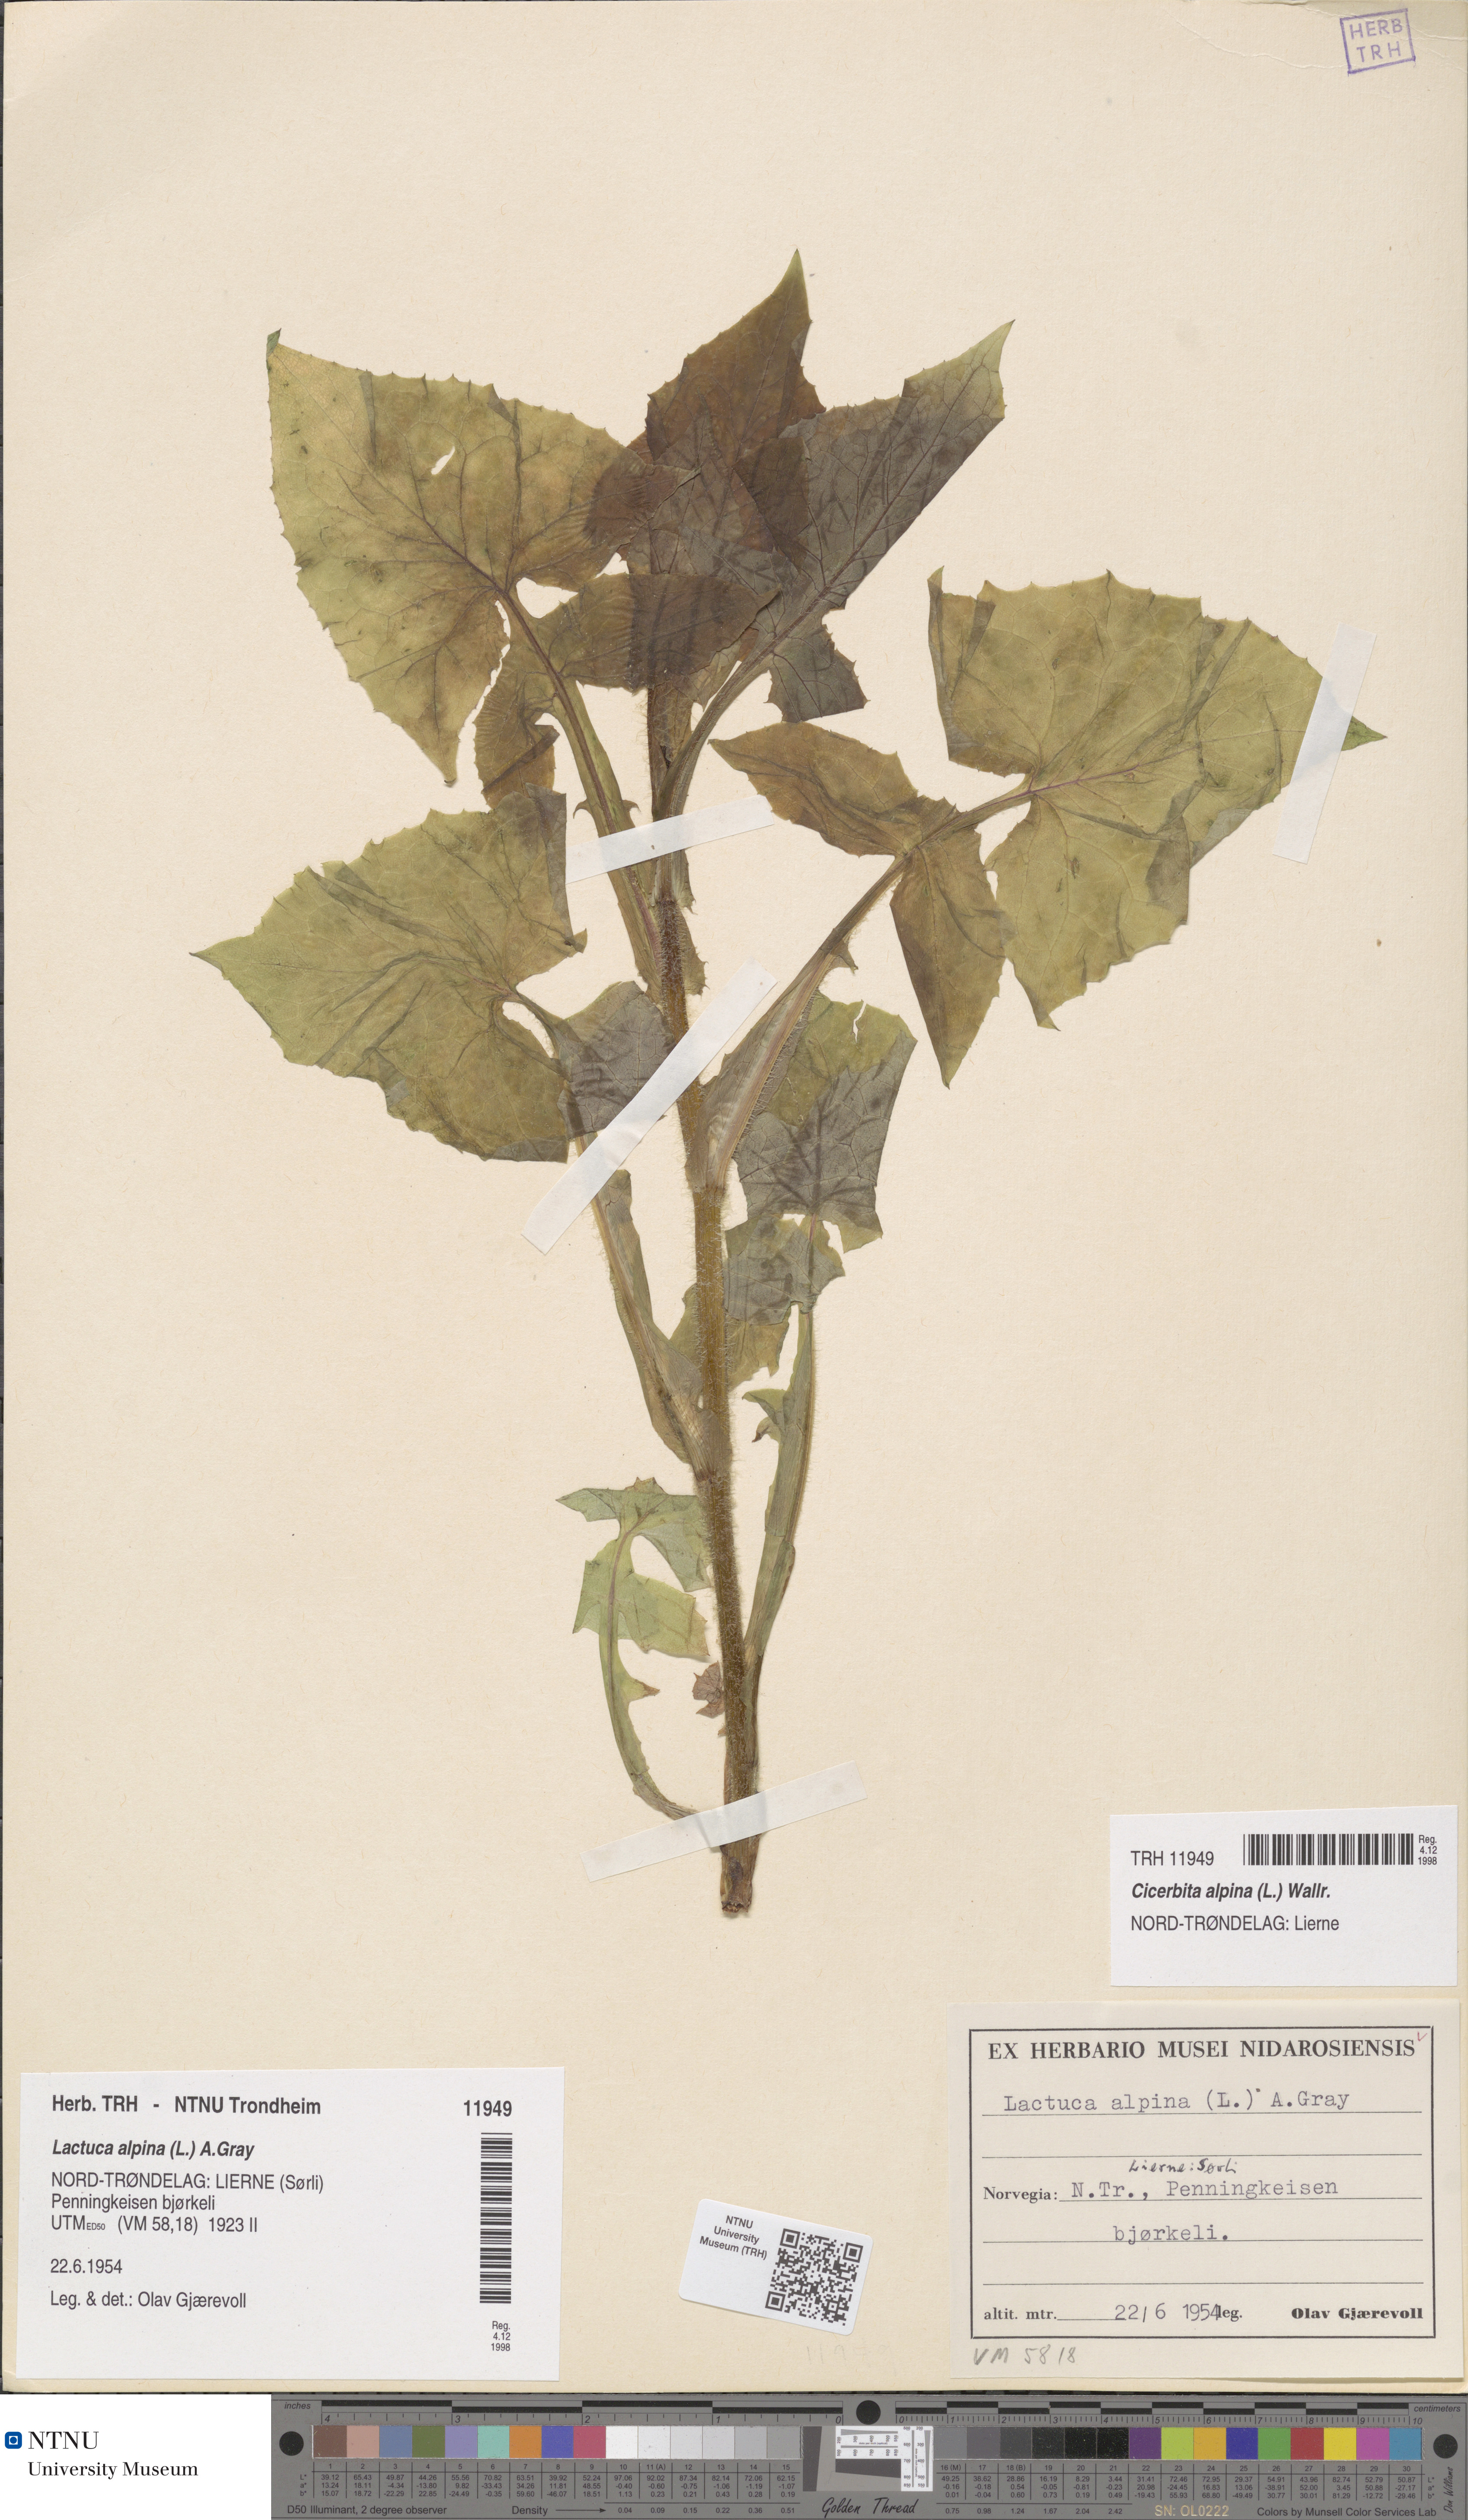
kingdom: Plantae
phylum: Tracheophyta
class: Magnoliopsida
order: Asterales
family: Asteraceae
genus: Cicerbita
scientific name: Cicerbita alpina
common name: Alpine blue-sow-thistle
